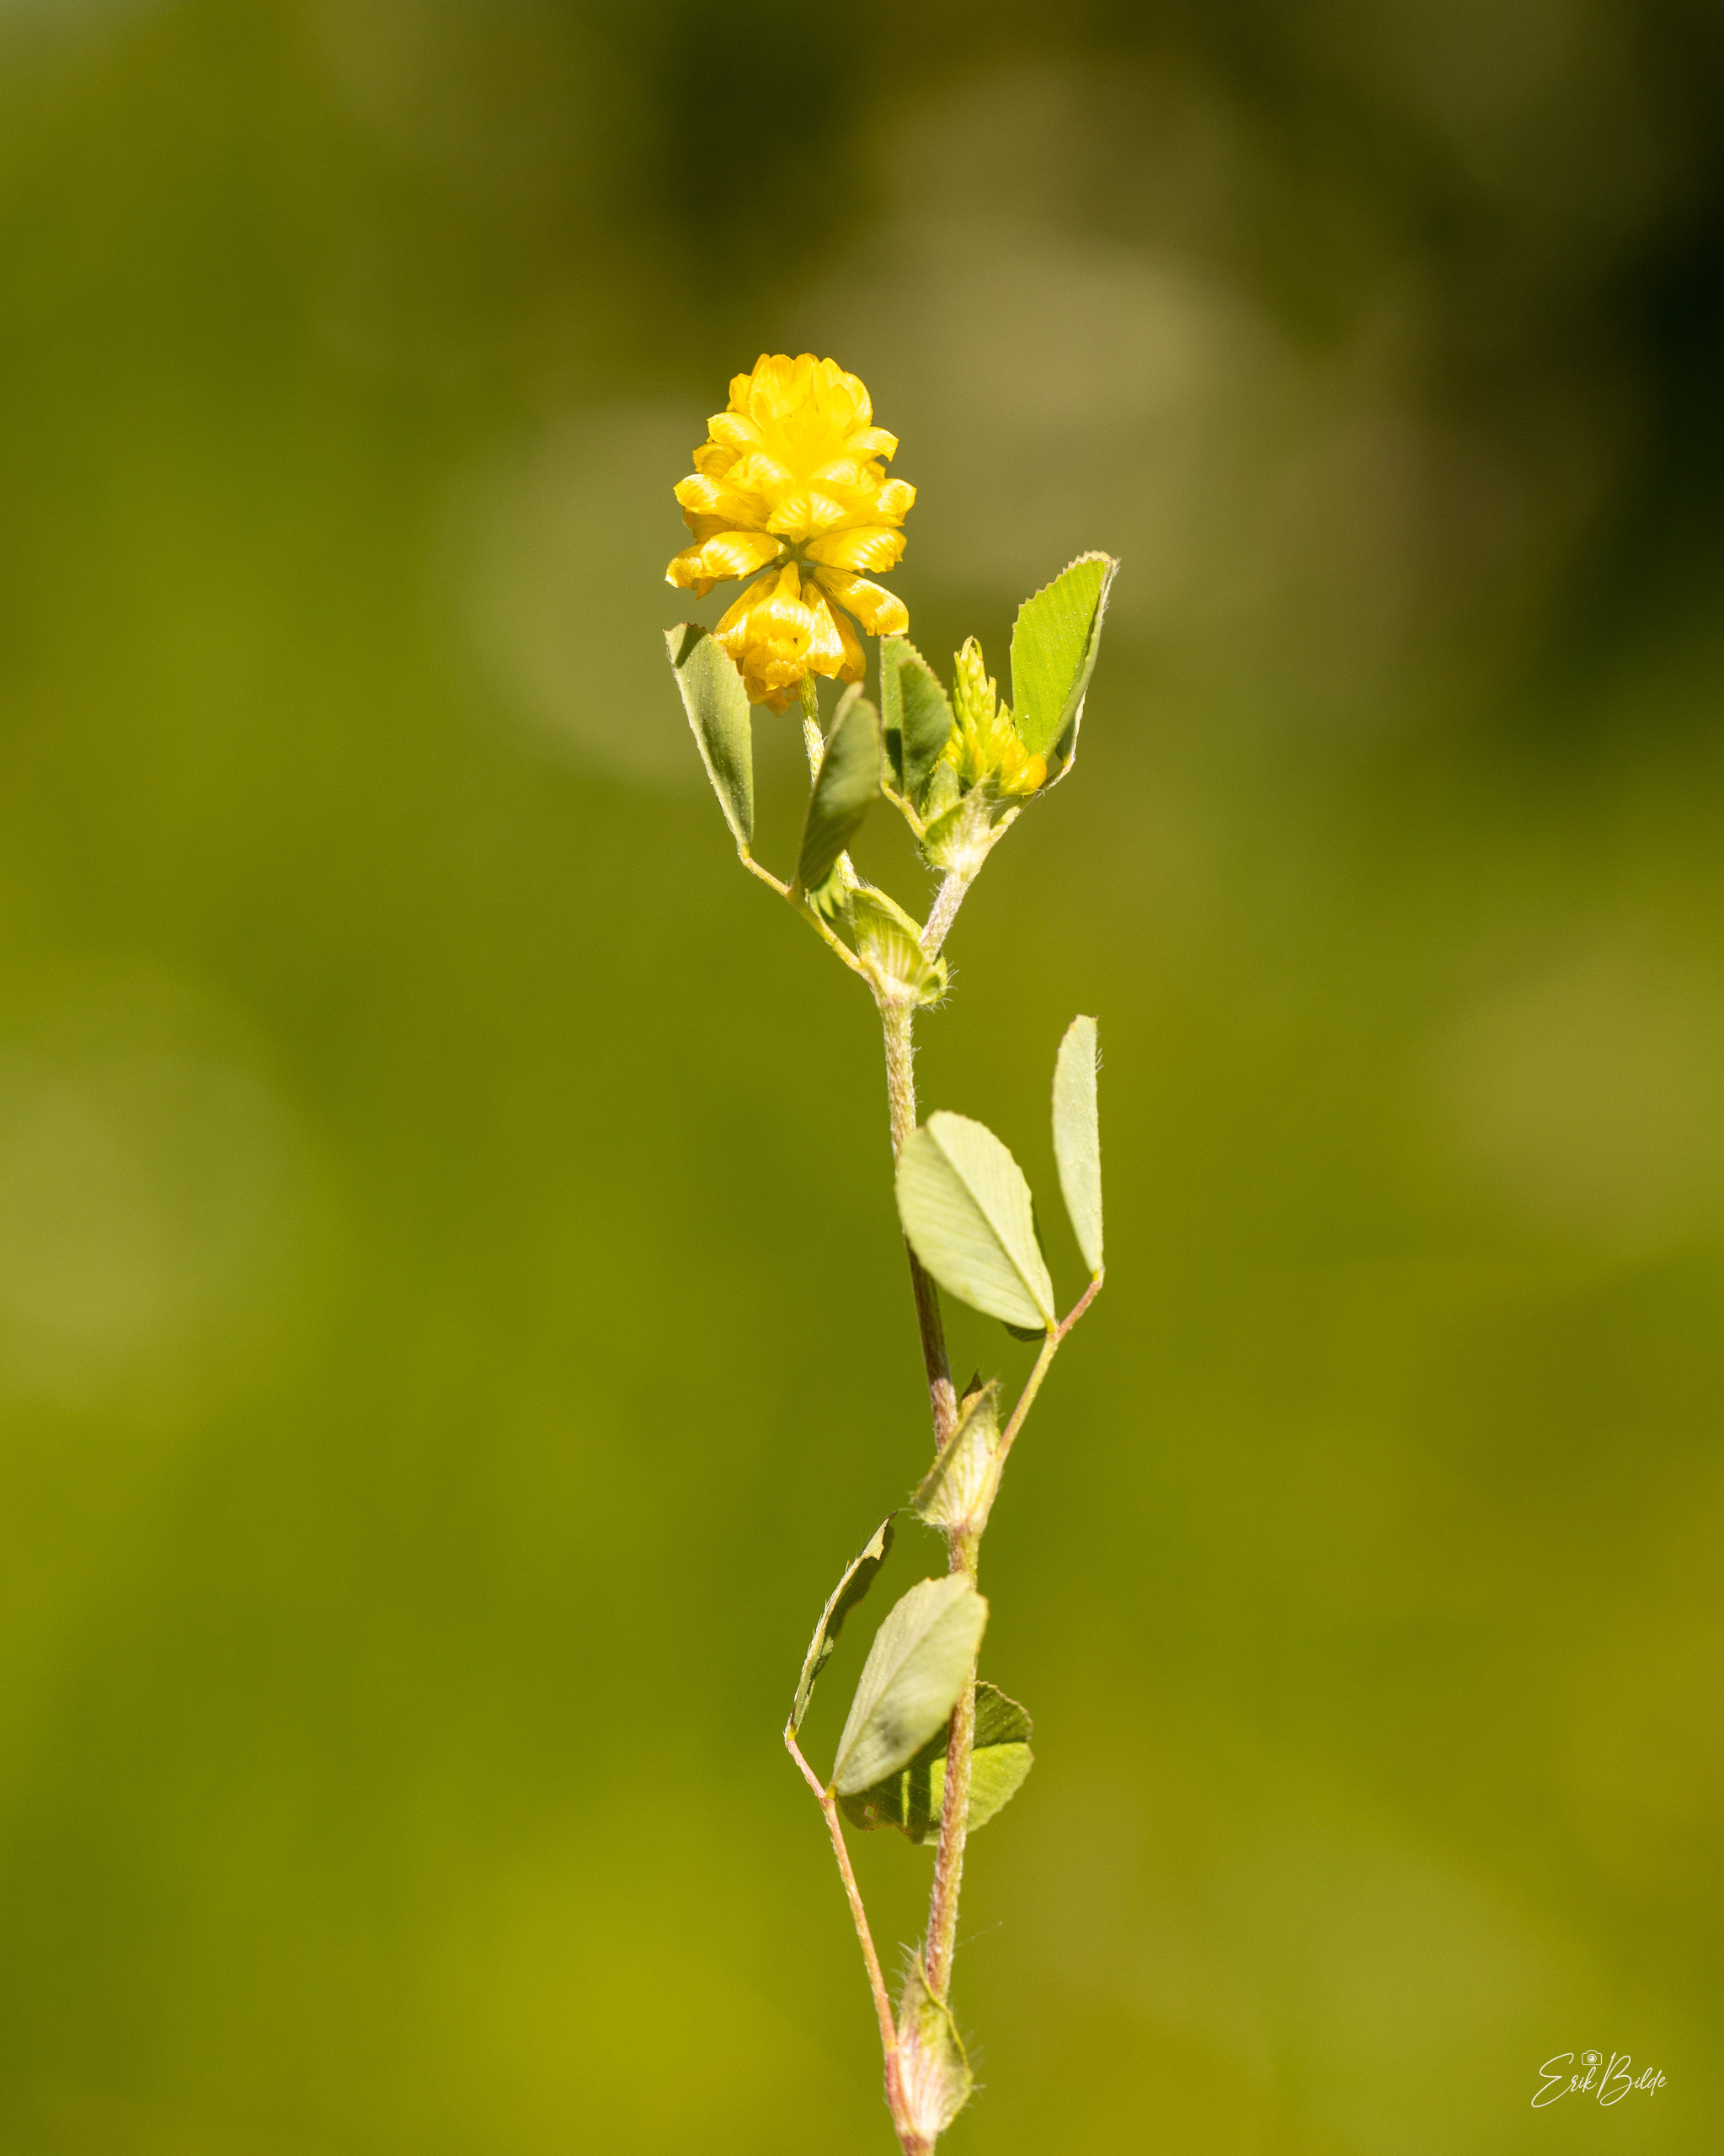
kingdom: Plantae
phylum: Tracheophyta
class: Magnoliopsida
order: Fabales
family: Fabaceae
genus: Trifolium
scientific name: Trifolium campestre
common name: Gul kløver
